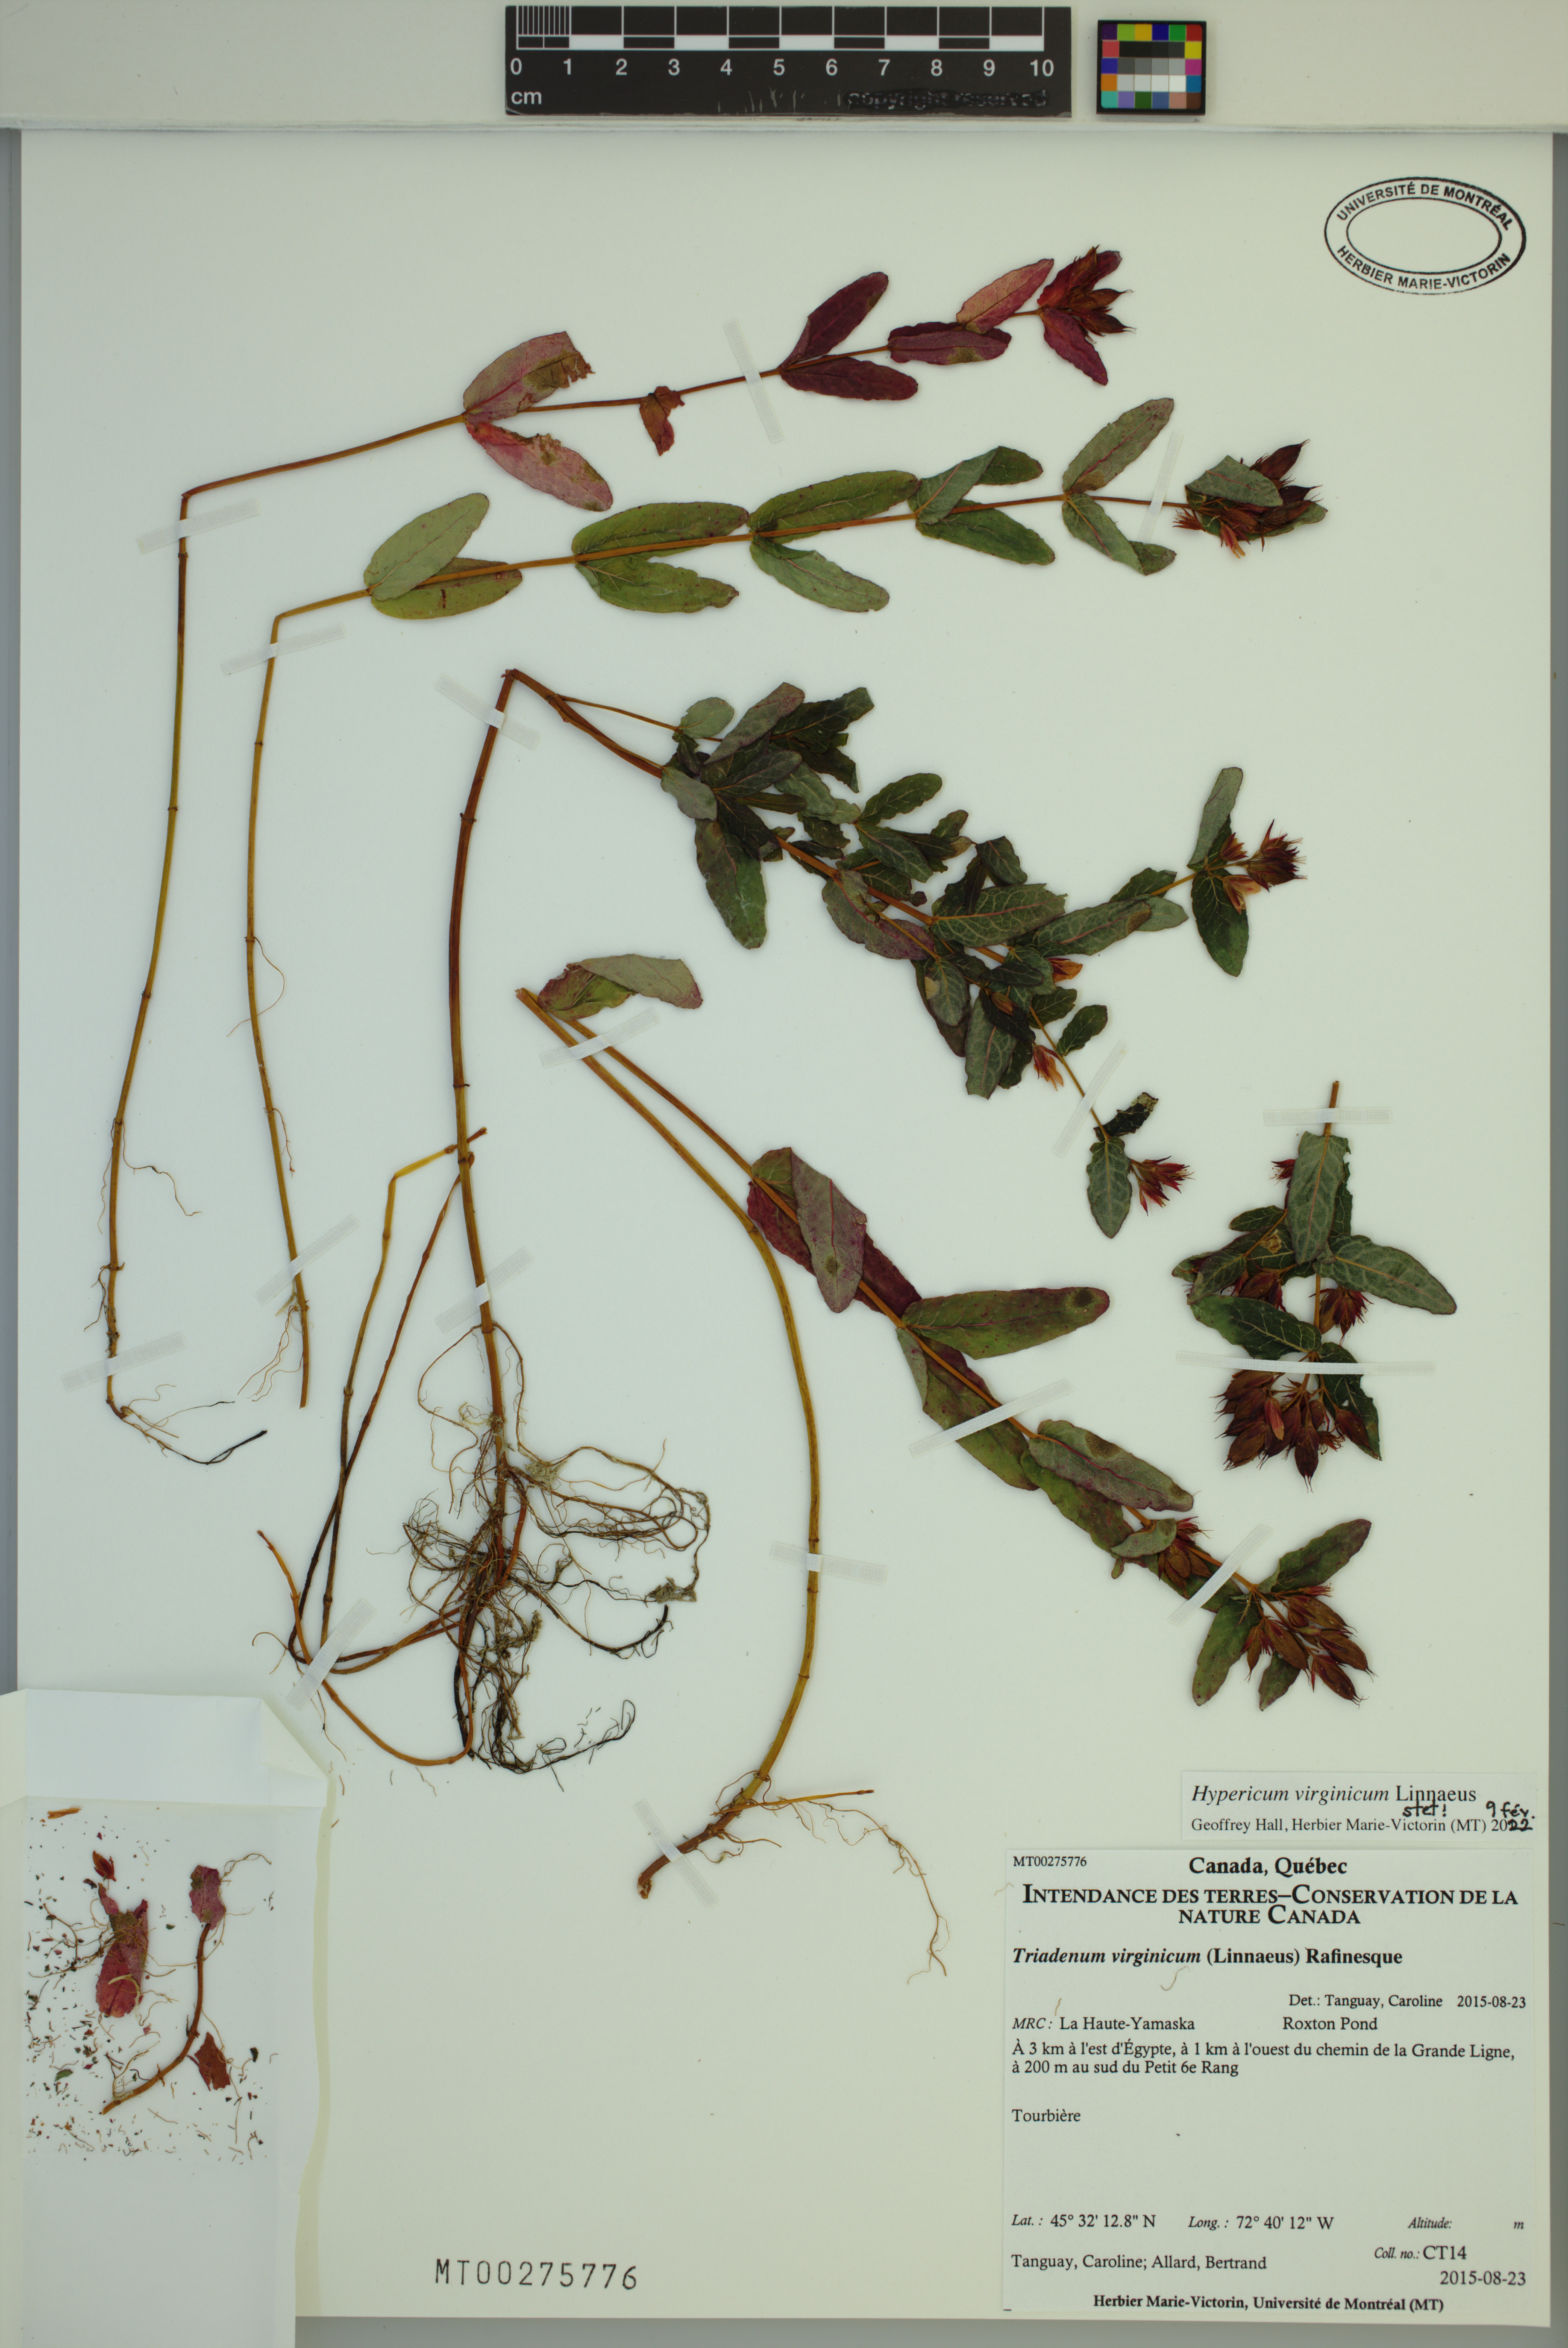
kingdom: Plantae
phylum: Tracheophyta
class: Magnoliopsida
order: Malpighiales
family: Hypericaceae
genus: Triadenum
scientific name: Triadenum virginicum
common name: Marsh st. john's-wort
